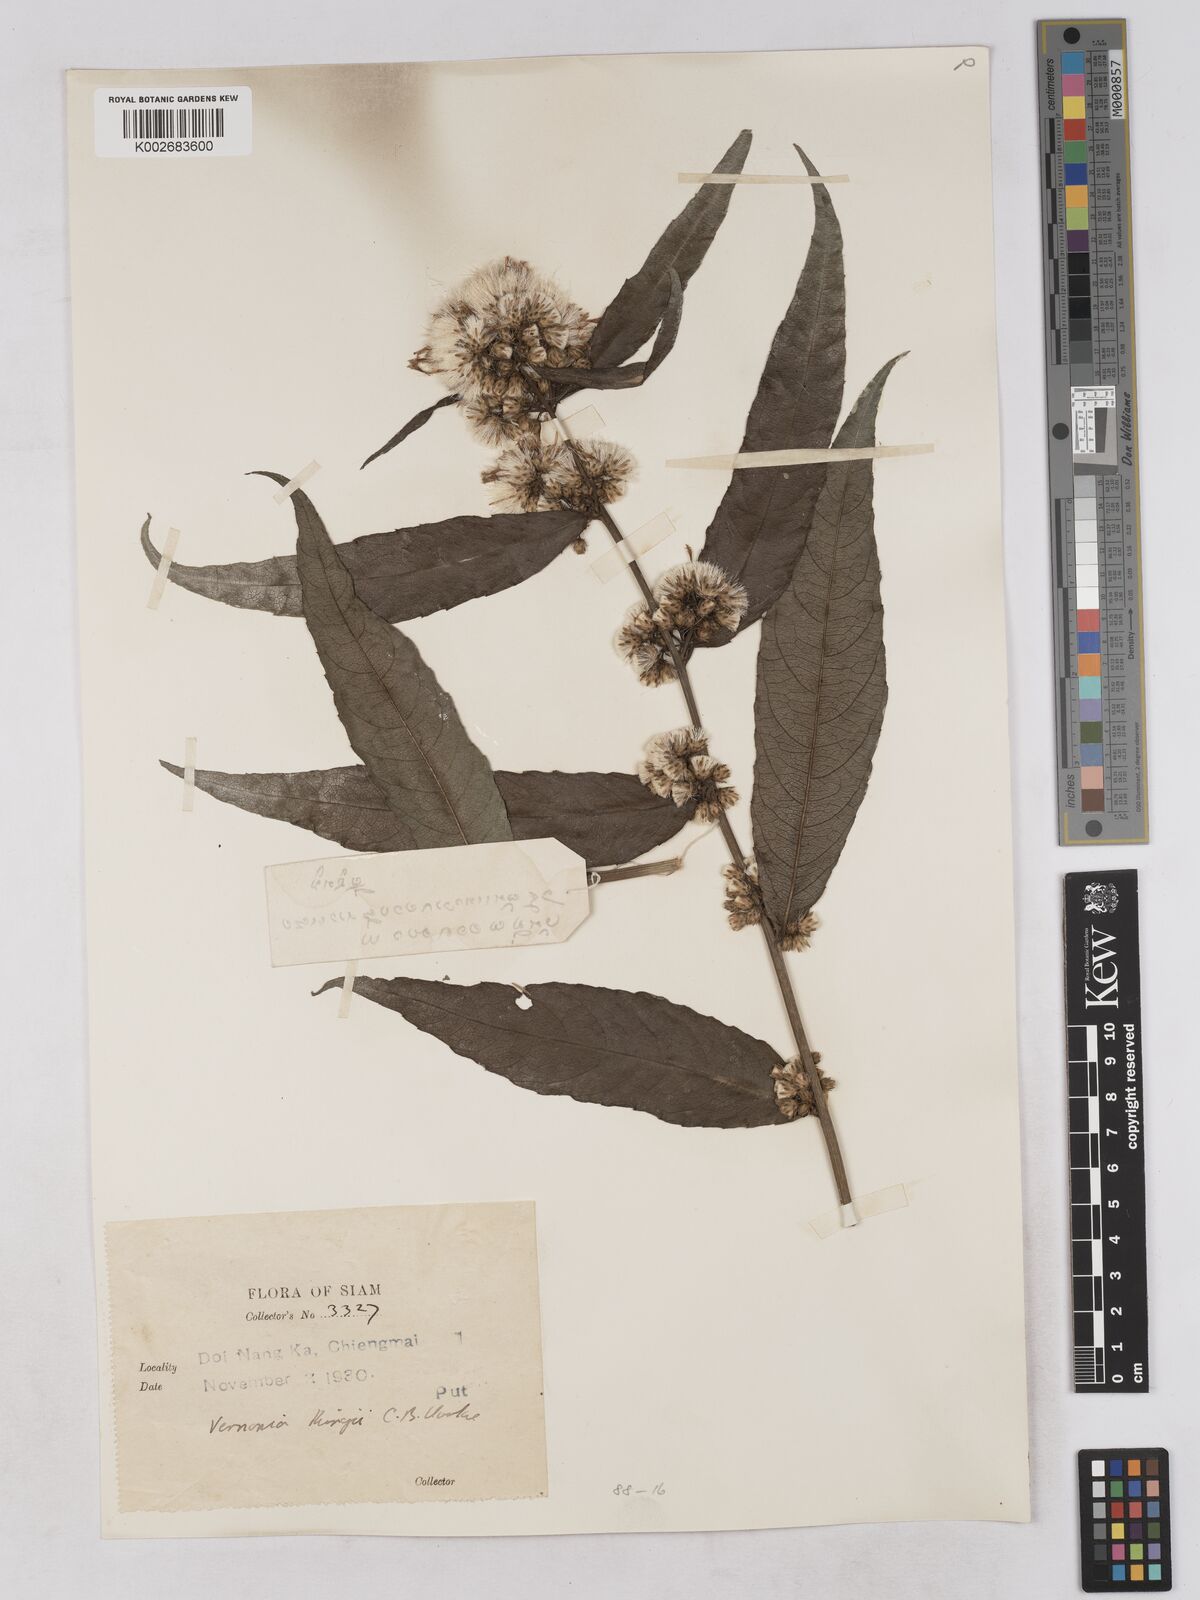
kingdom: Plantae
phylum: Tracheophyta
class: Magnoliopsida
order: Asterales
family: Asteraceae
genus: Acilepis
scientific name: Acilepis kingii
